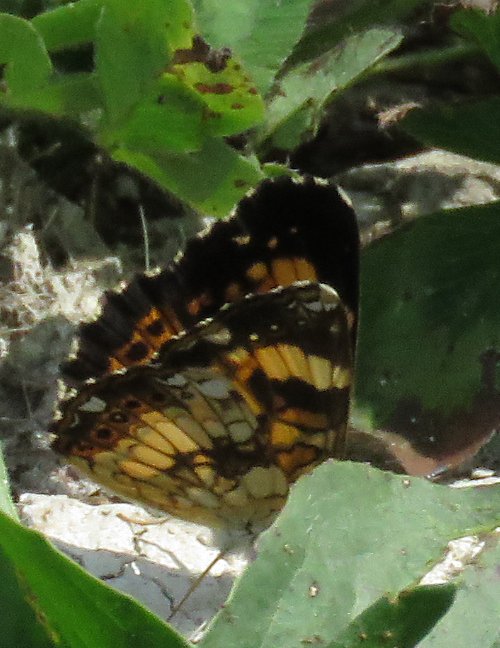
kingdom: Animalia
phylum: Arthropoda
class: Insecta
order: Lepidoptera
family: Nymphalidae
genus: Chlosyne
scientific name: Chlosyne nycteis
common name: Silvery Checkerspot
